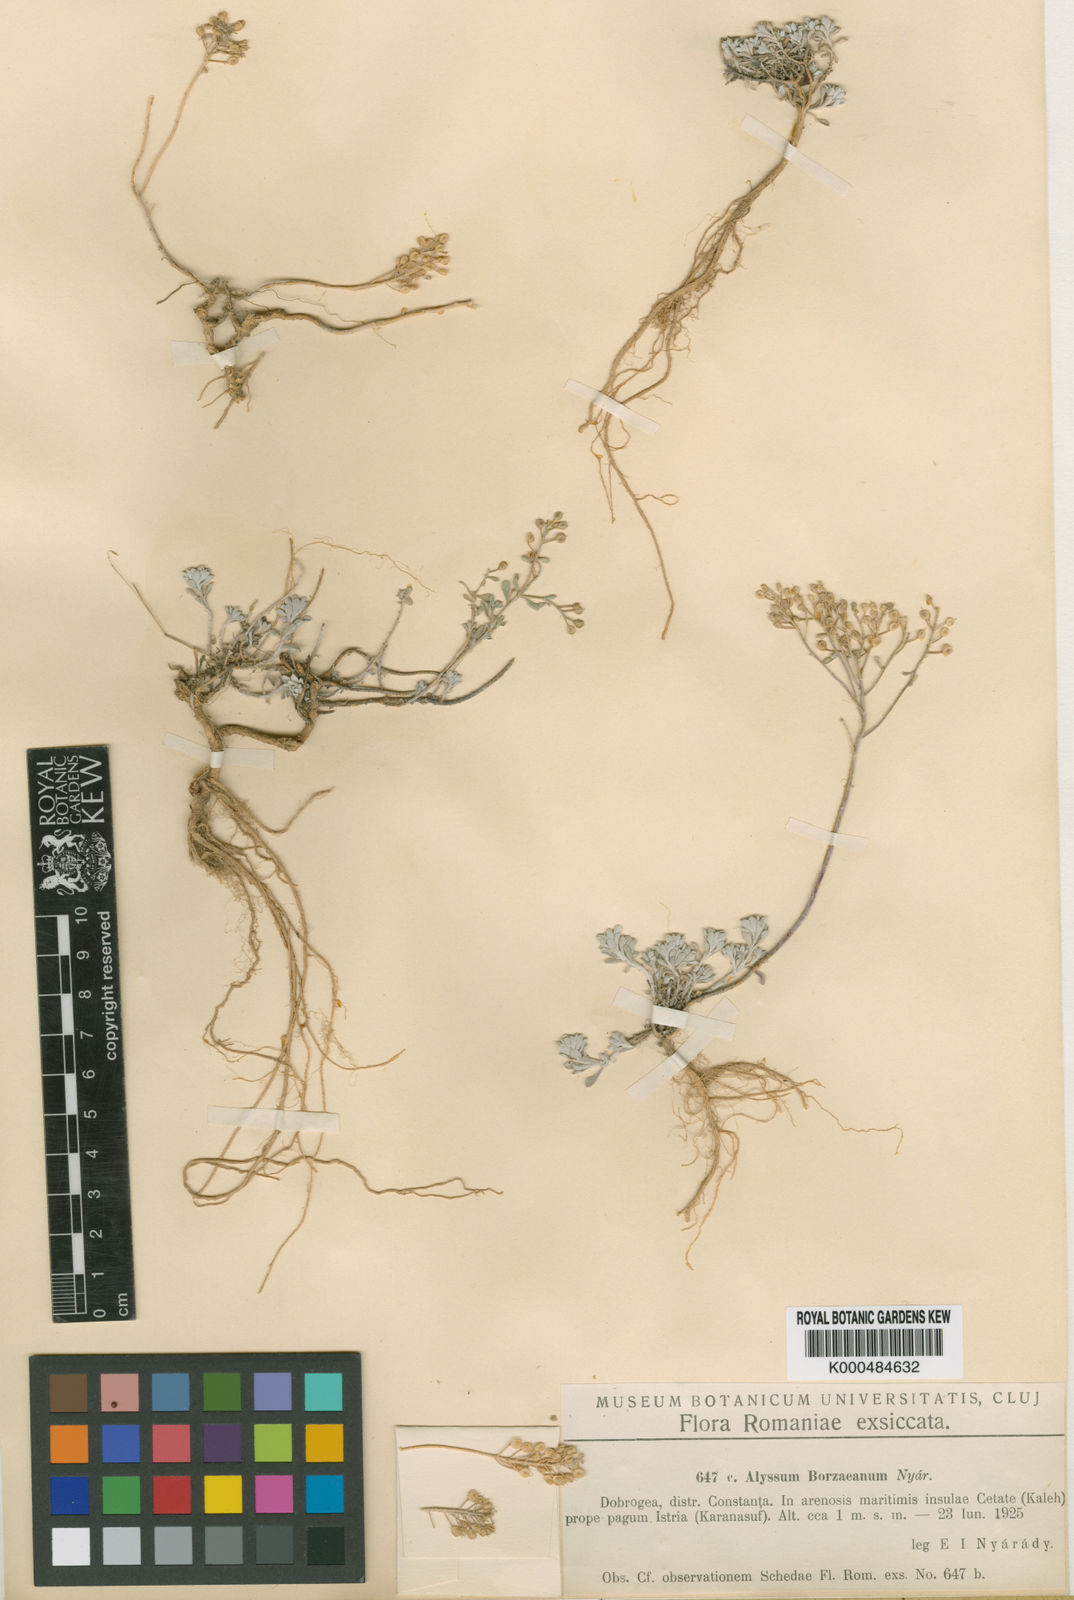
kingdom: Plantae
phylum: Tracheophyta
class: Magnoliopsida
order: Brassicales
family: Brassicaceae
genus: Odontarrhena
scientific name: Odontarrhena borzeana
